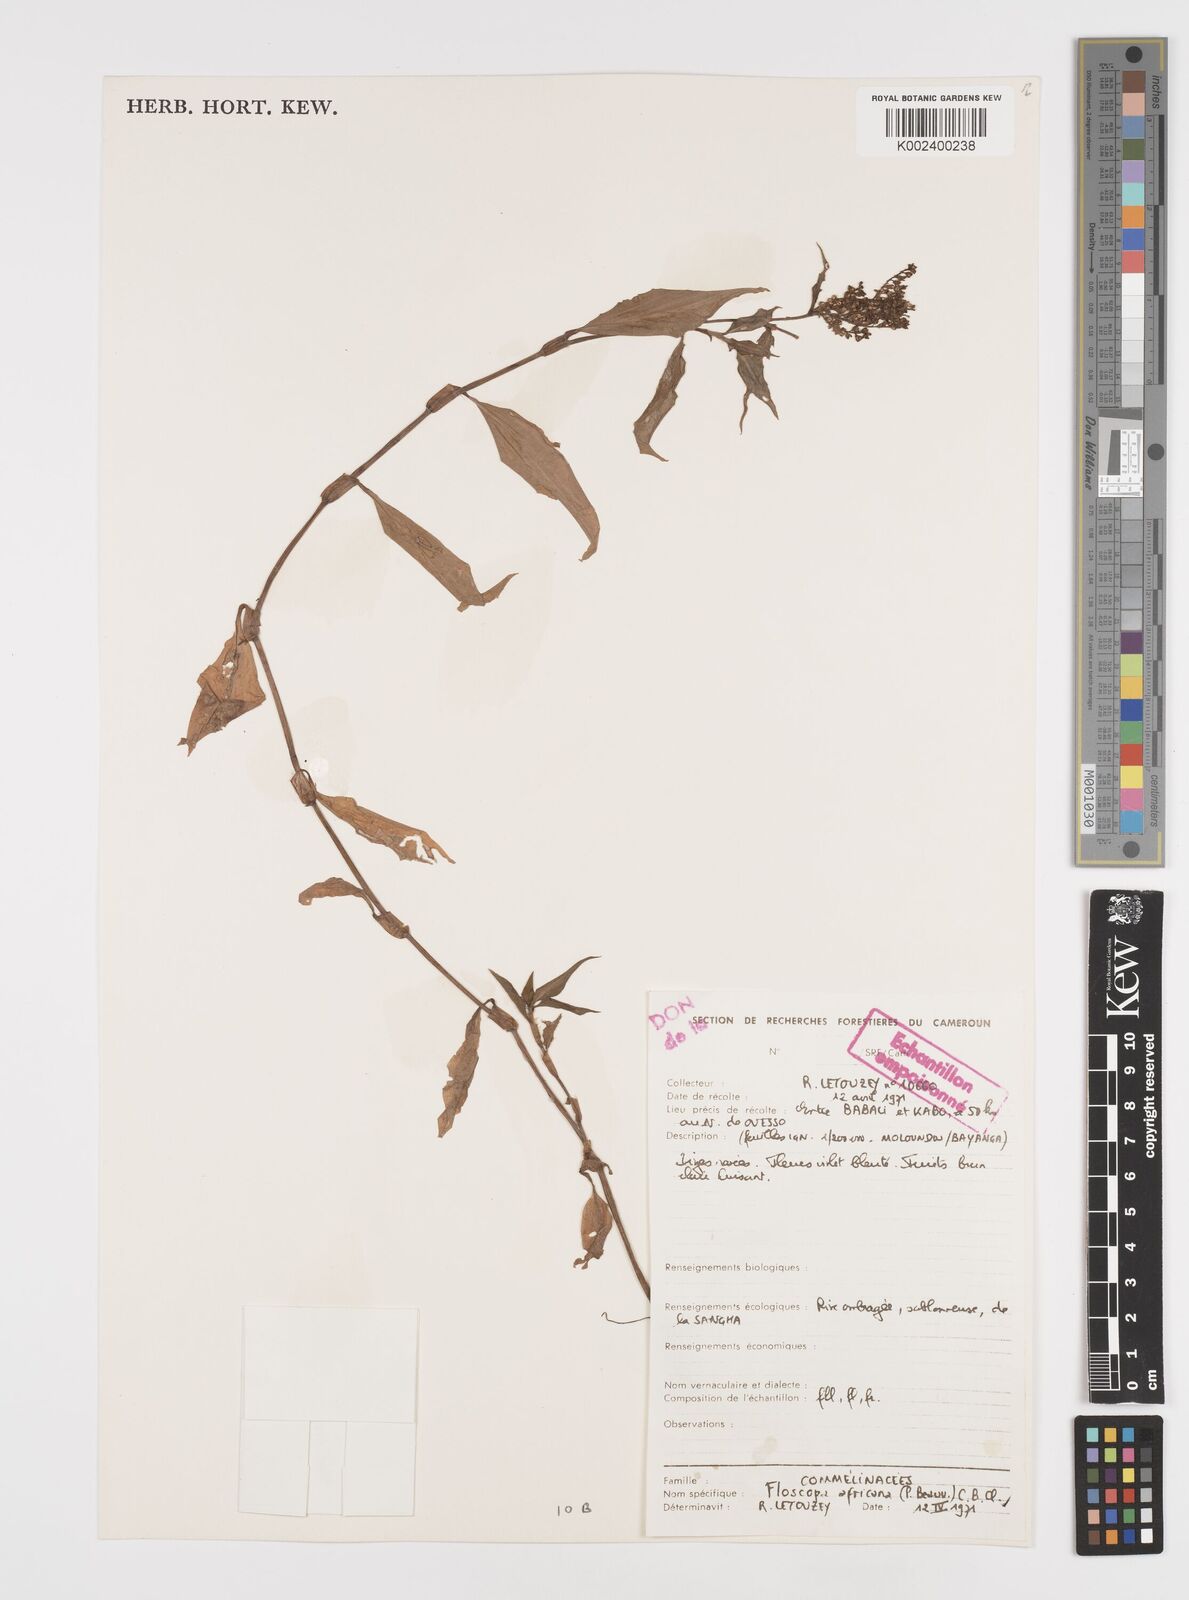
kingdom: Plantae
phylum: Tracheophyta
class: Liliopsida
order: Commelinales
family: Commelinaceae
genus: Floscopa
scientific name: Floscopa africana
